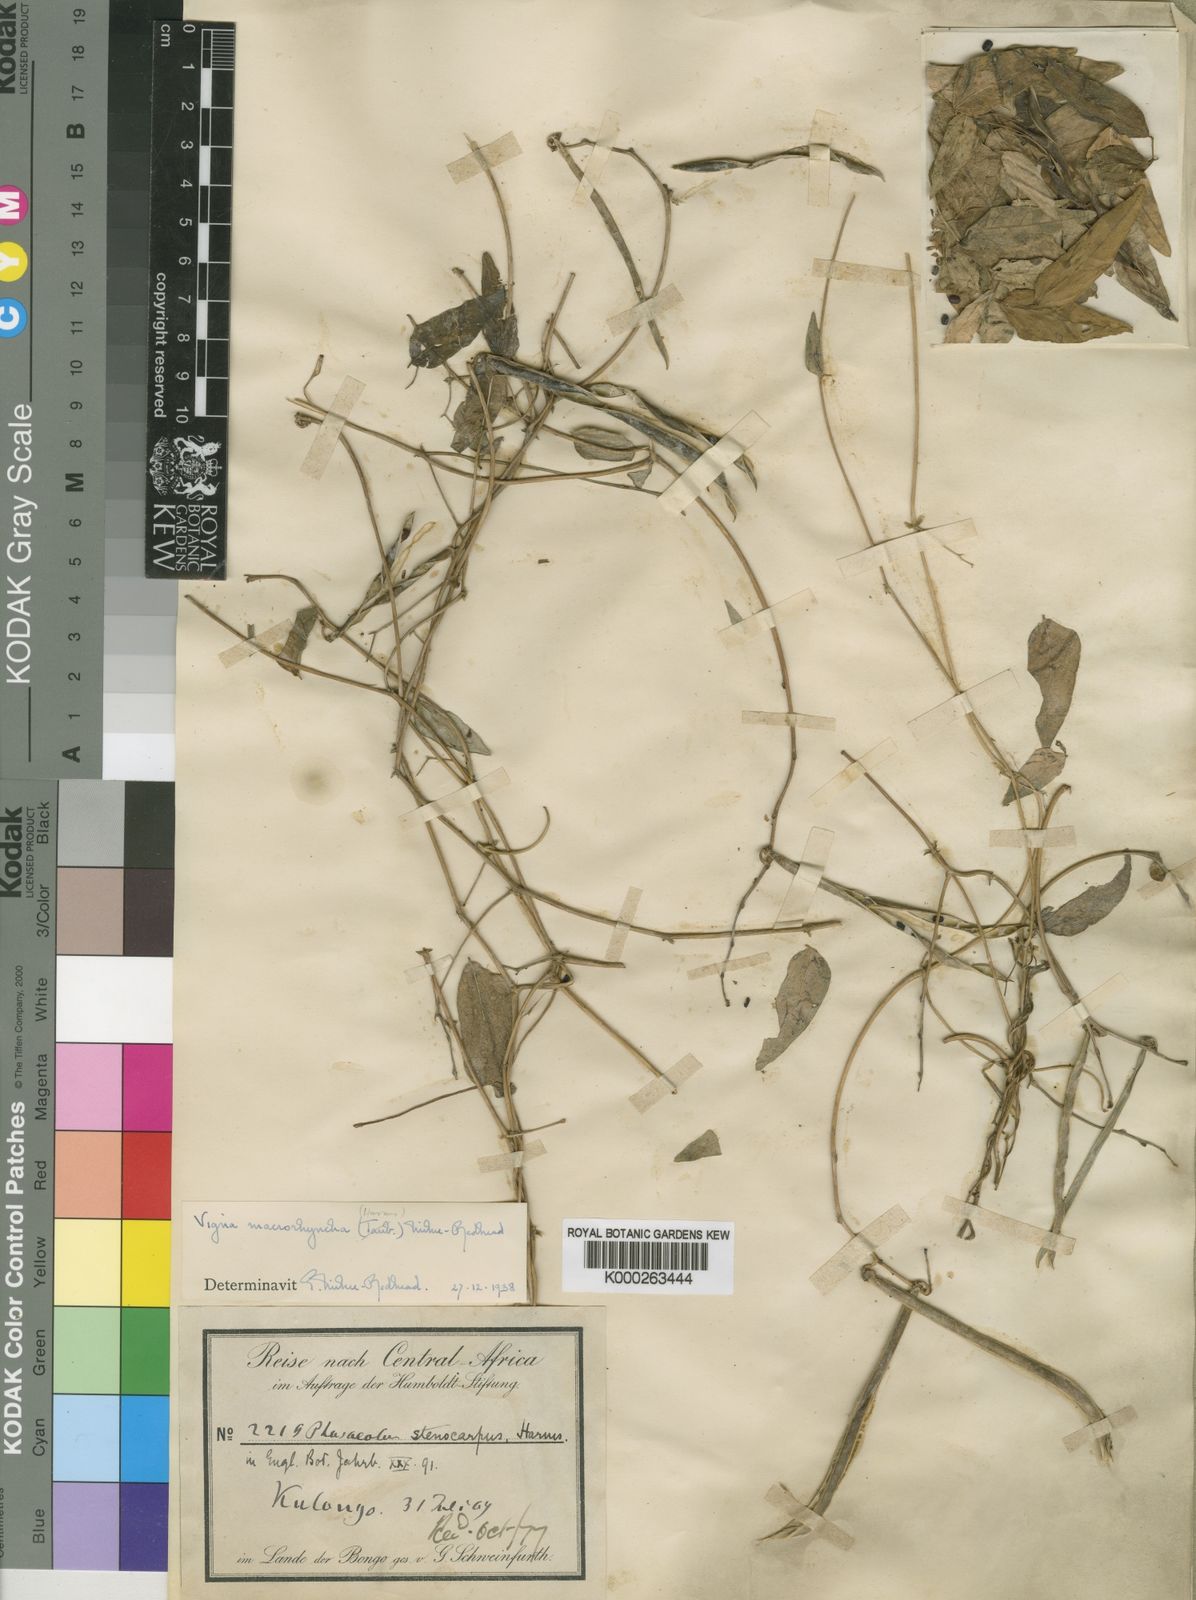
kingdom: Plantae
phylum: Tracheophyta
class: Magnoliopsida
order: Fabales
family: Fabaceae
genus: Wajira
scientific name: Wajira grahamiana
